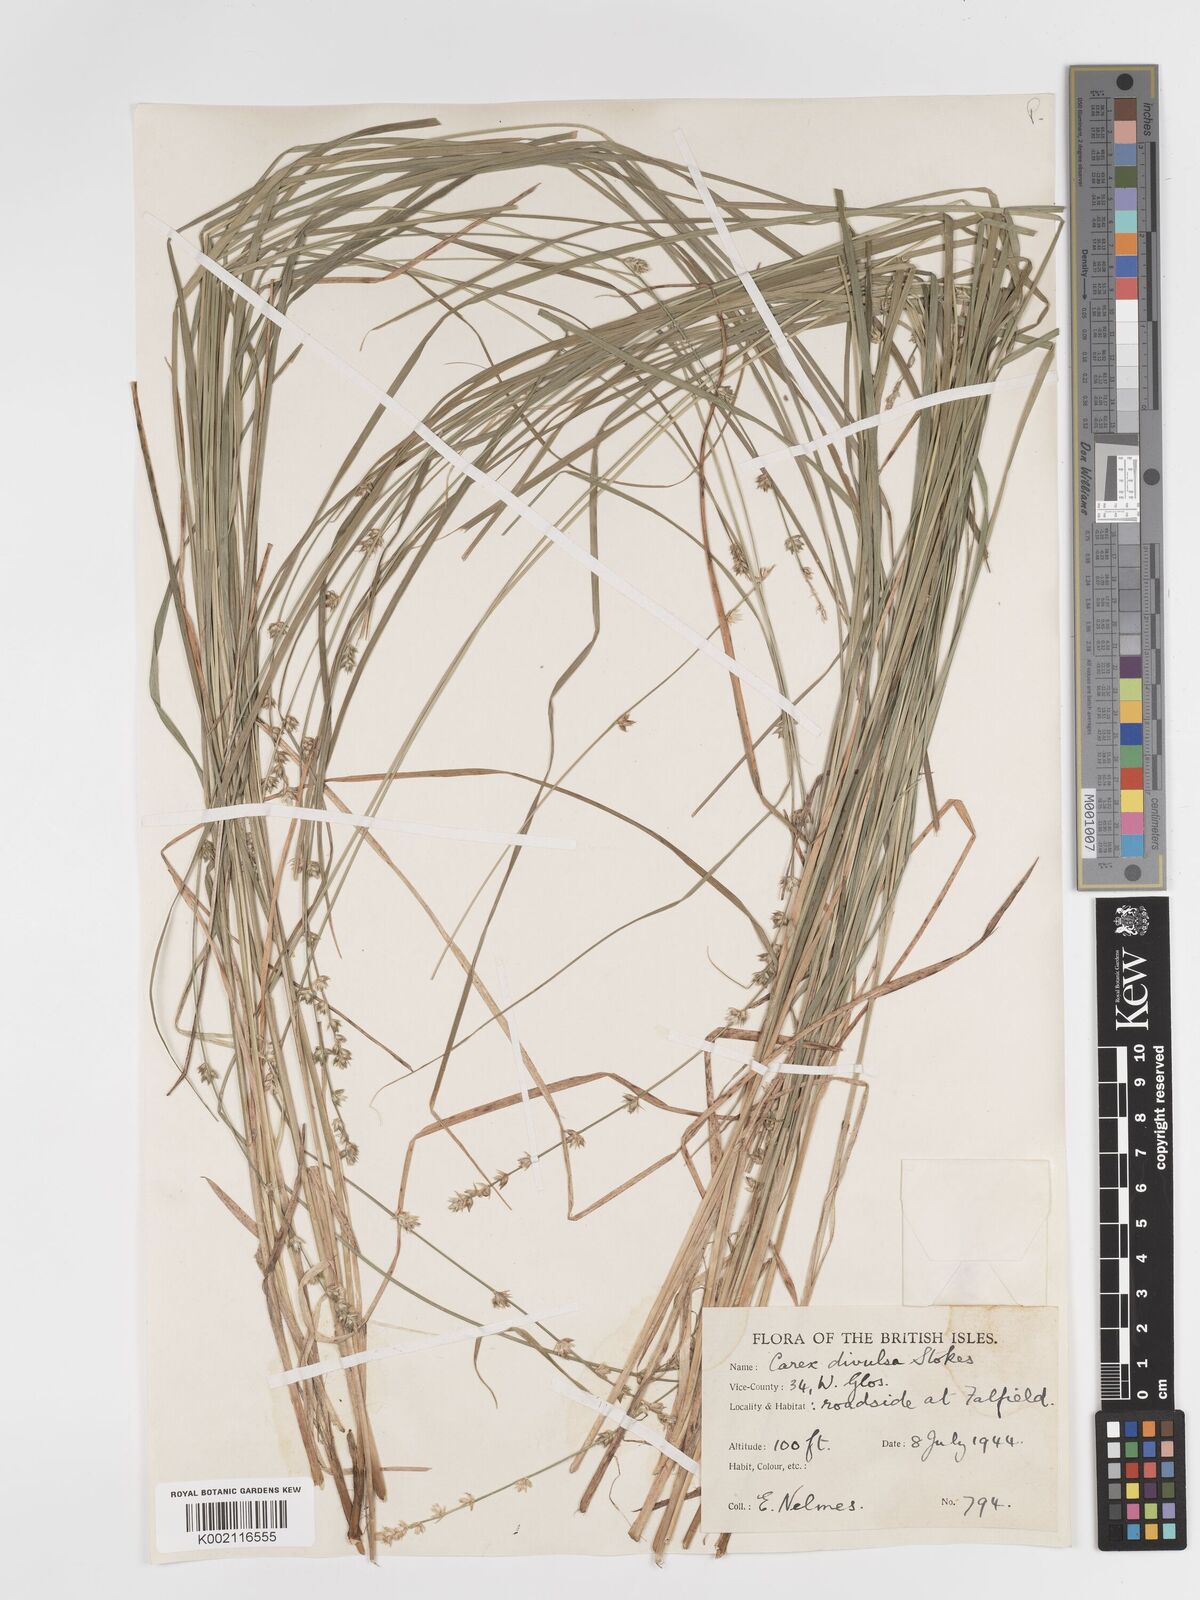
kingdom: Plantae
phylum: Tracheophyta
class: Liliopsida
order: Poales
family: Cyperaceae
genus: Carex
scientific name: Carex divulsa
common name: Grassland sedge
